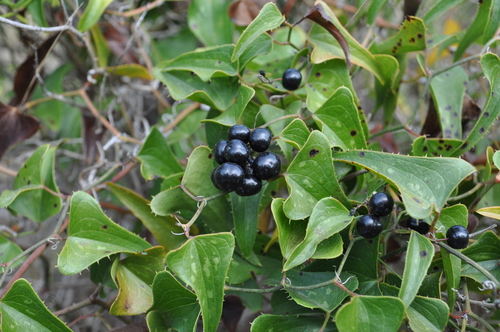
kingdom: Plantae
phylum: Tracheophyta
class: Liliopsida
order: Liliales
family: Smilacaceae
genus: Smilax
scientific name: Smilax aspera
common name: Common smilax
